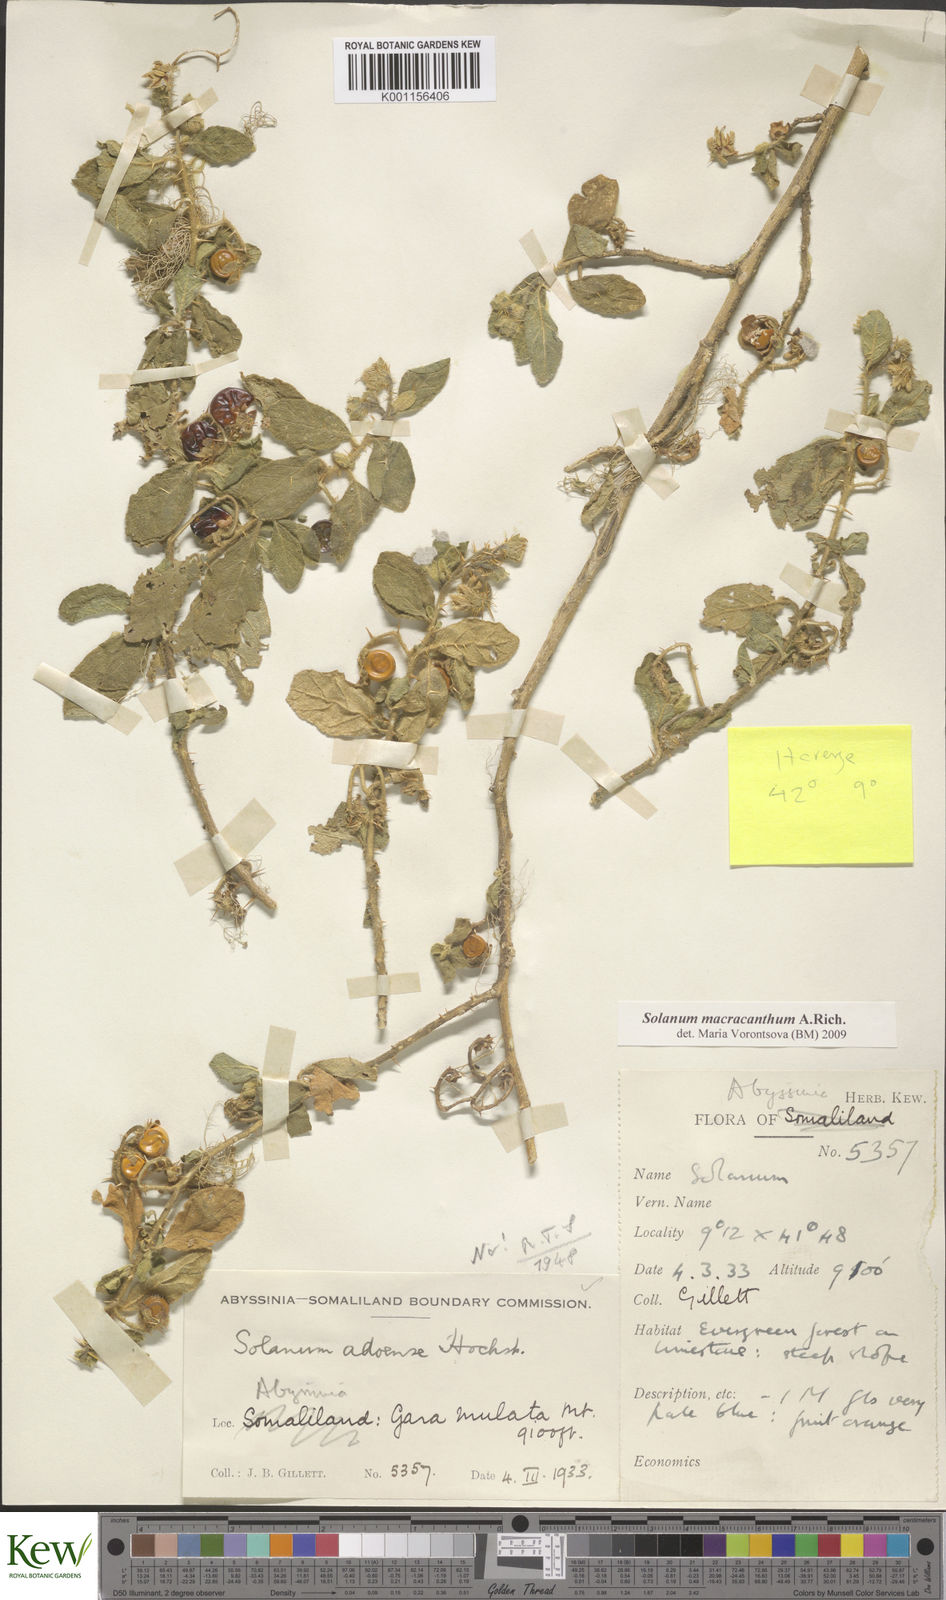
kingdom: Plantae
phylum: Tracheophyta
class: Magnoliopsida
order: Solanales
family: Solanaceae
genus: Solanum
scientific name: Solanum macracanthum
